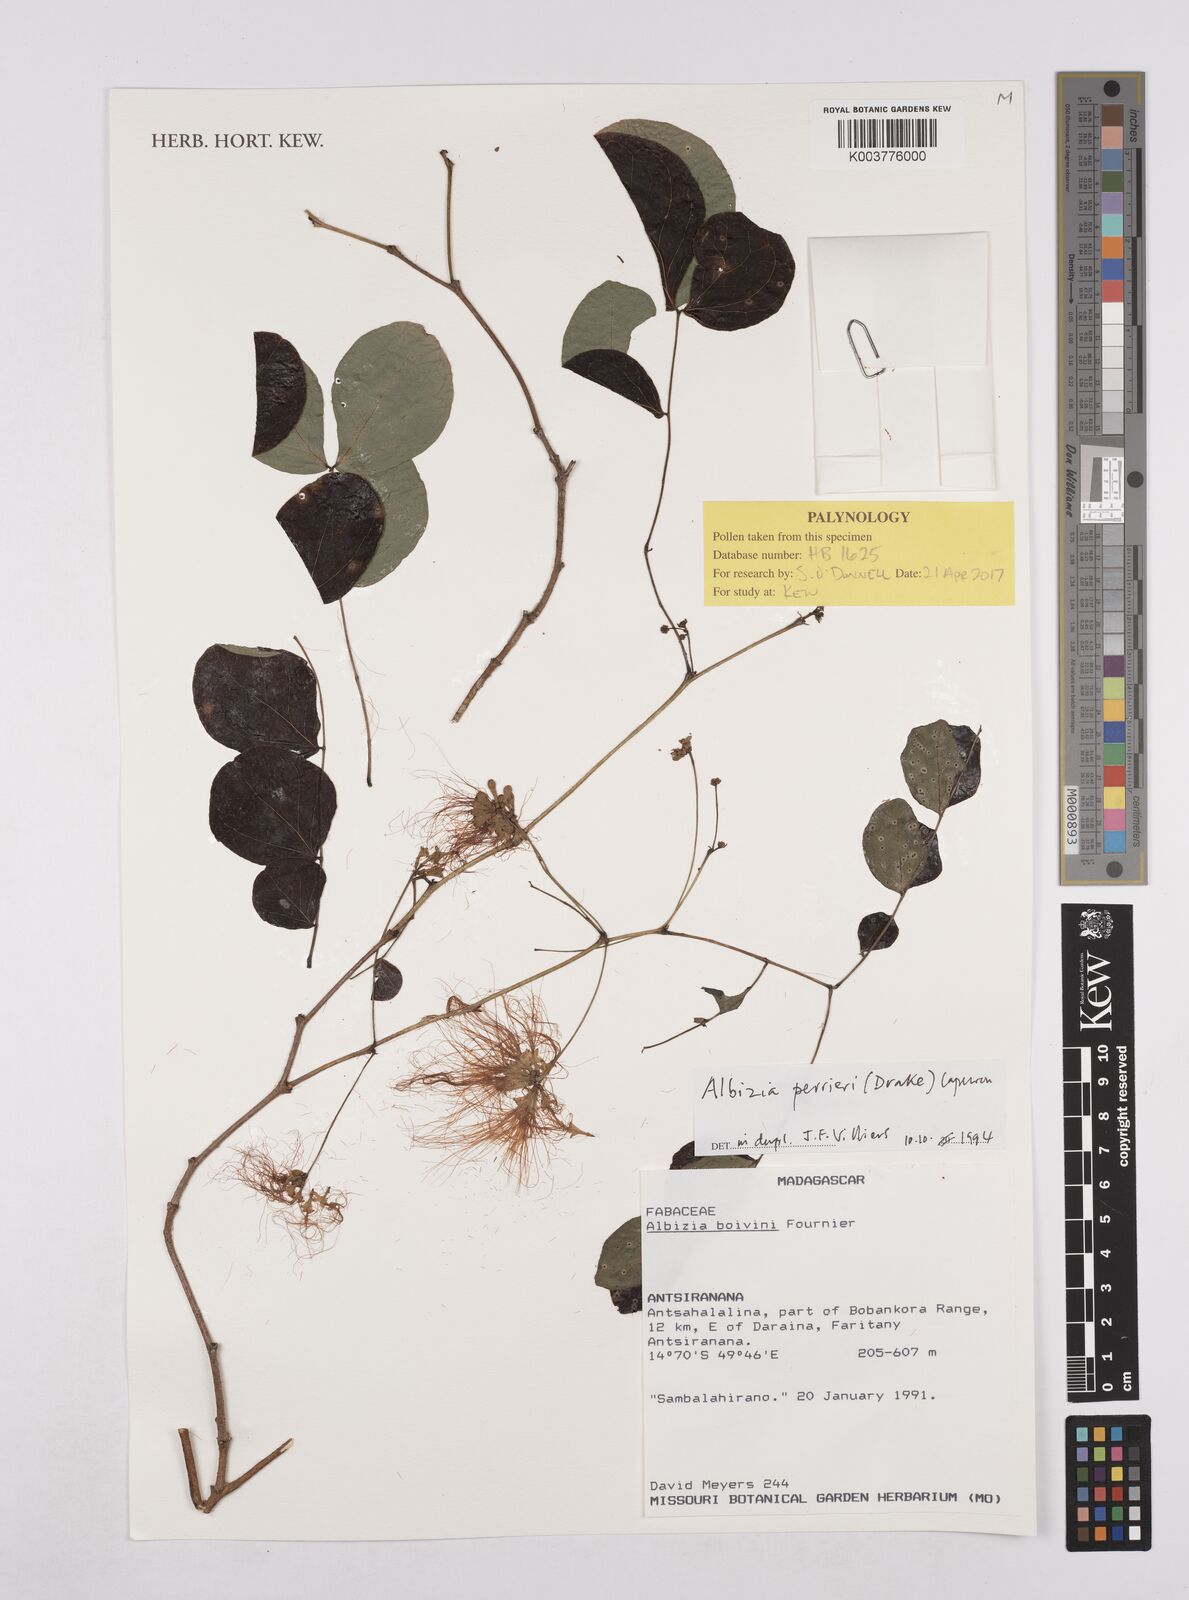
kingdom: Plantae
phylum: Tracheophyta
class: Magnoliopsida
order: Fabales
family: Fabaceae
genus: Albizia
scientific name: Albizia perrieri
